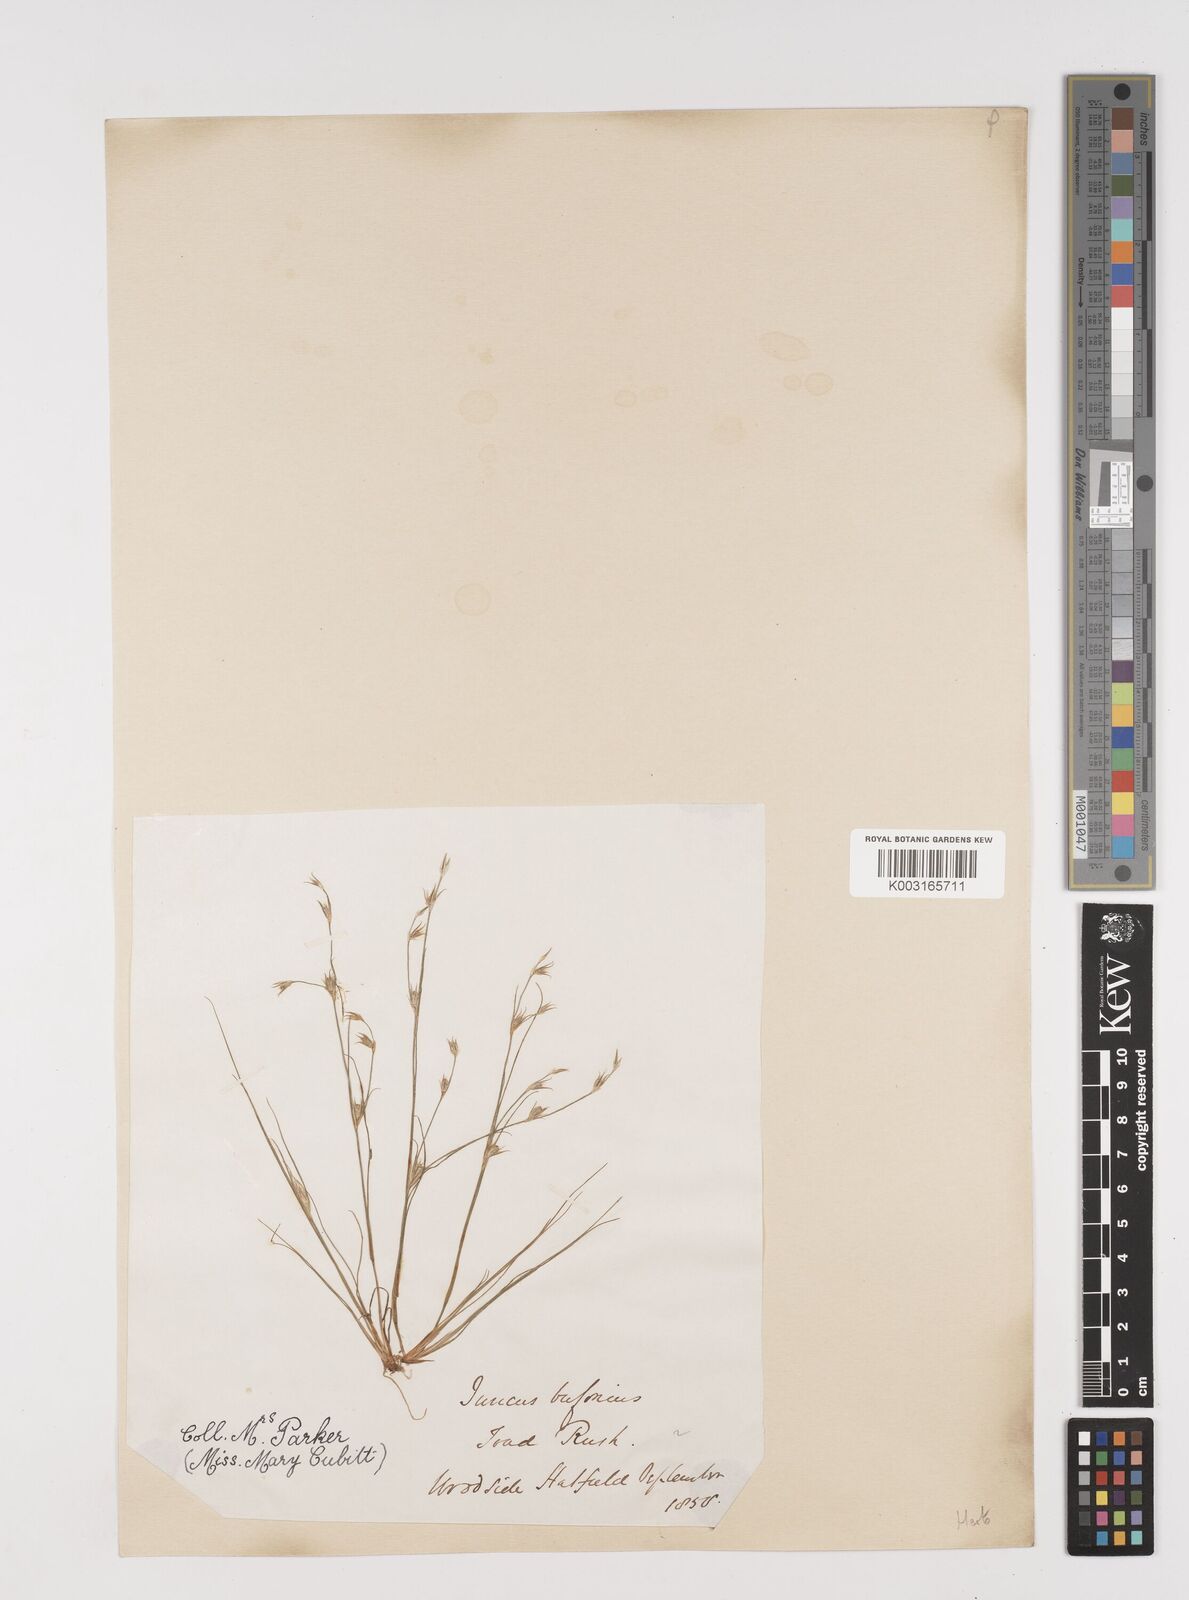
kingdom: Plantae
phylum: Tracheophyta
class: Liliopsida
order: Poales
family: Juncaceae
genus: Juncus
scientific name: Juncus bufonius
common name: Toad rush
